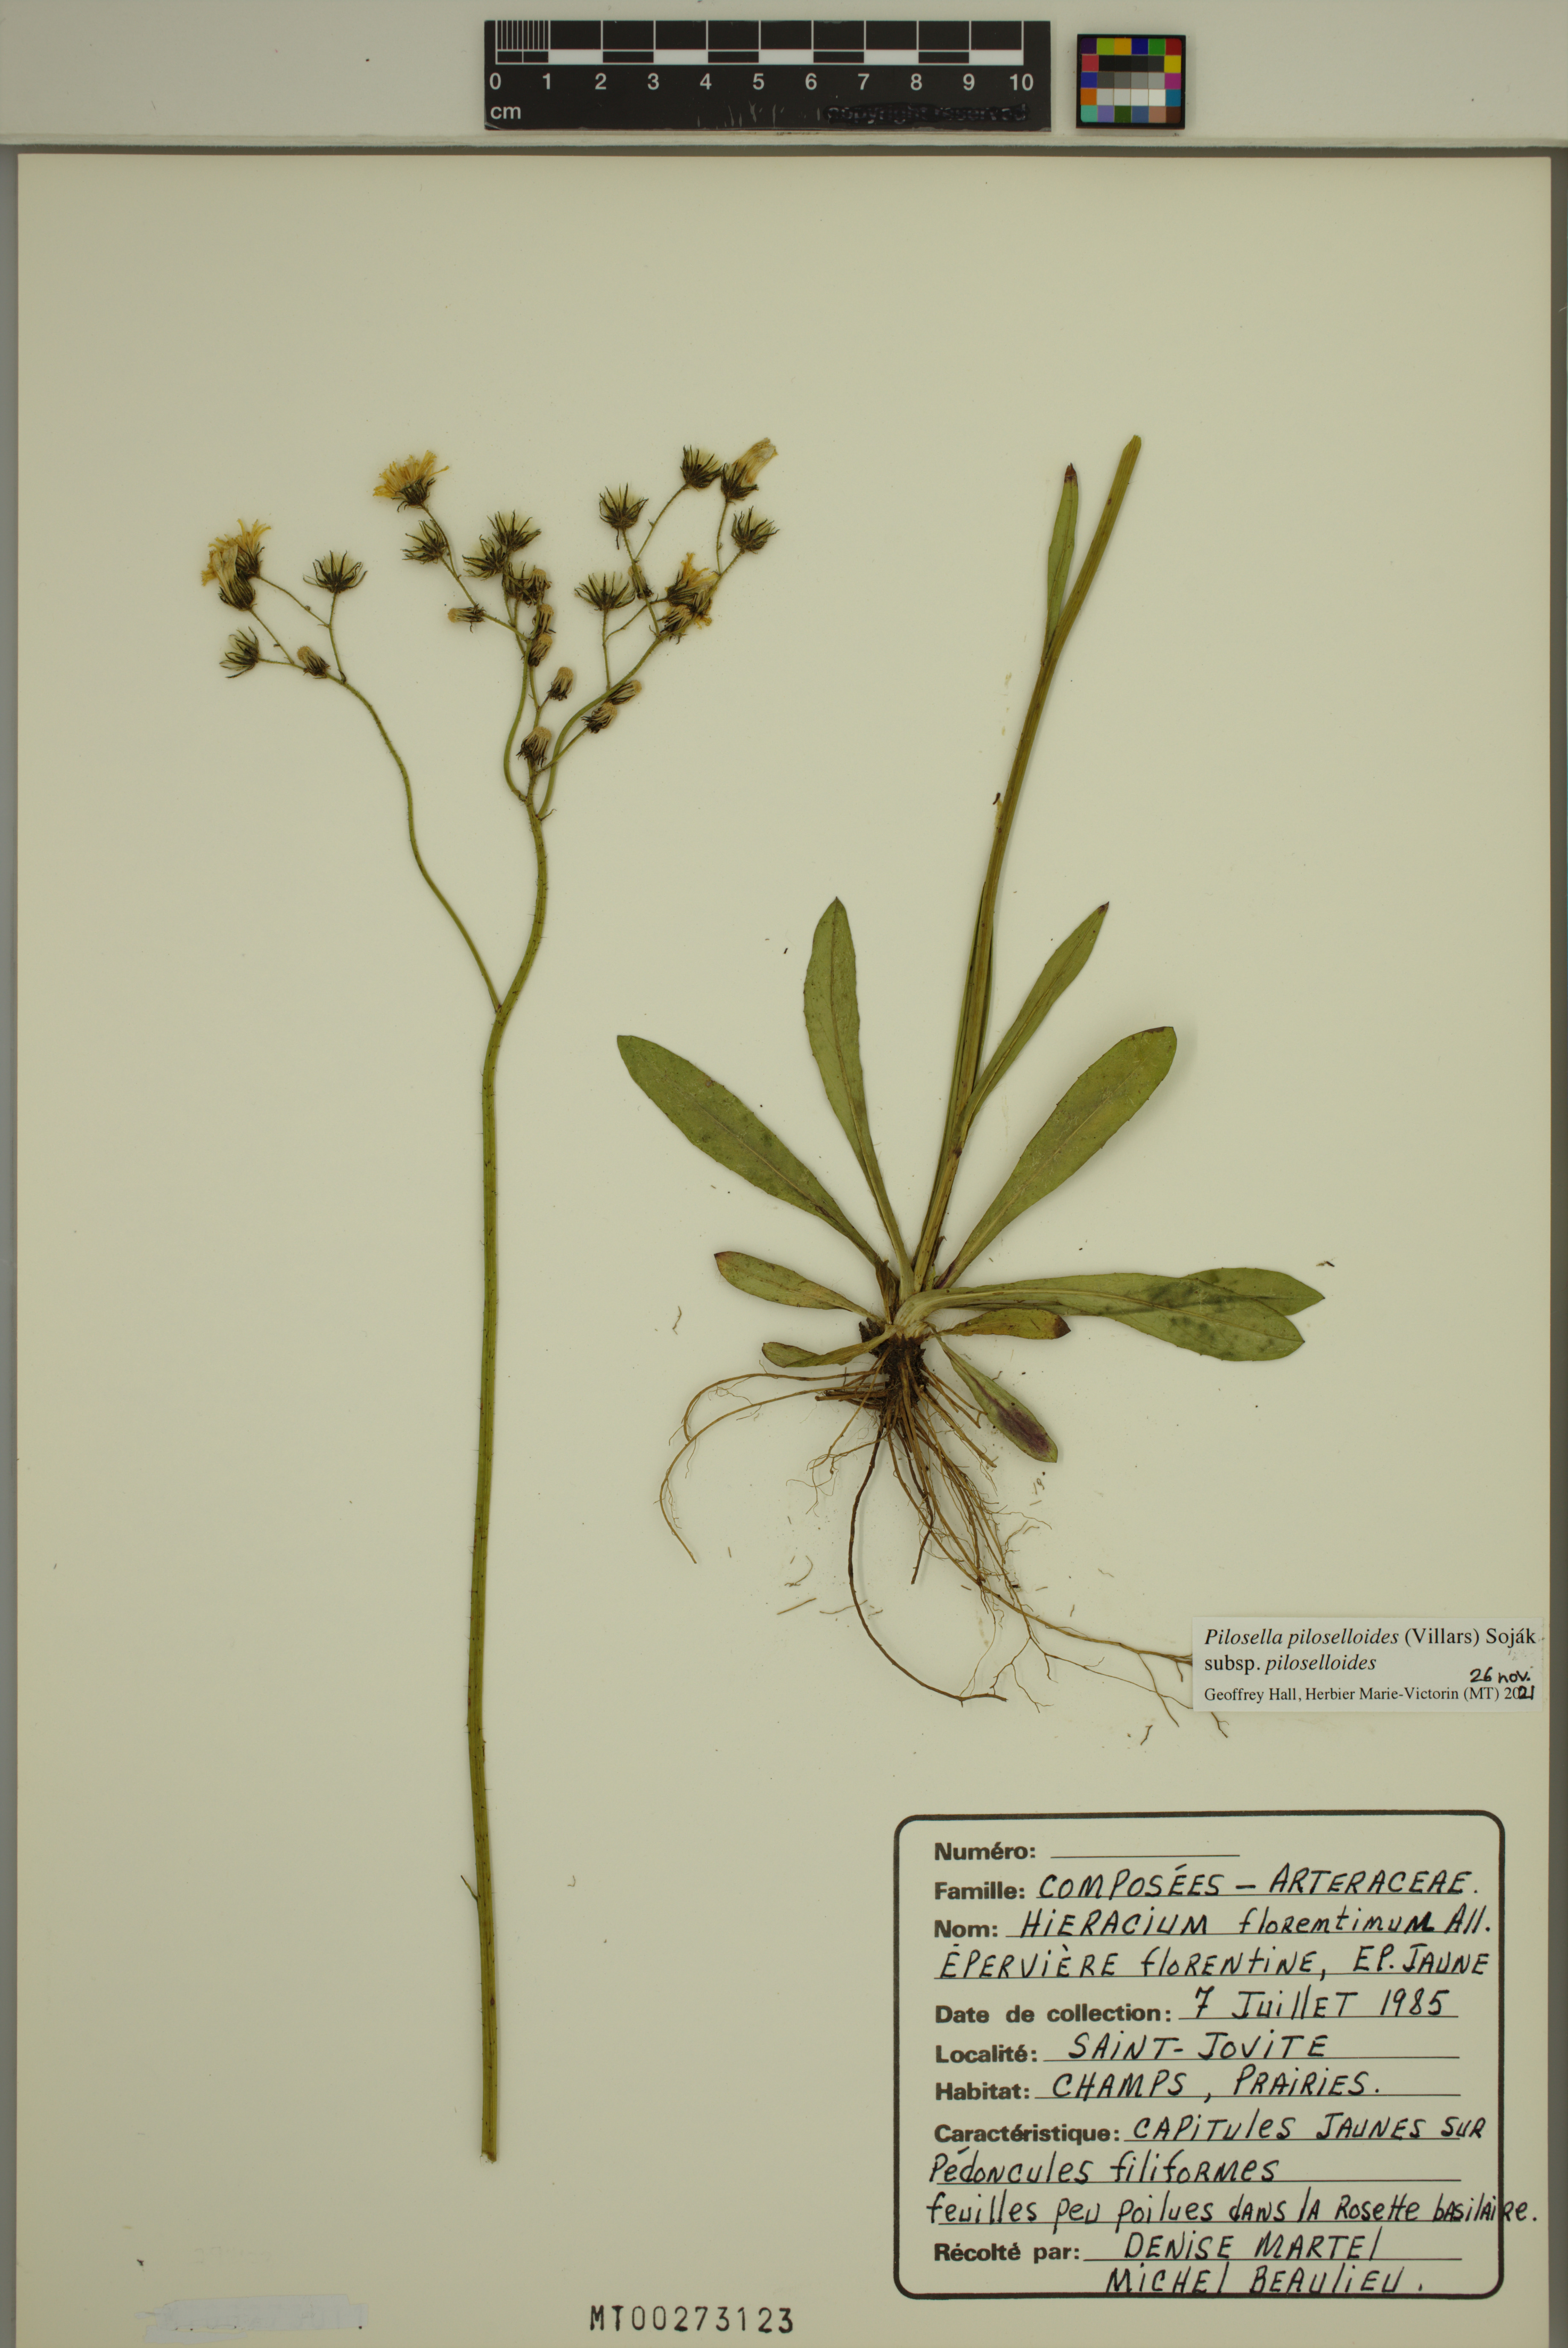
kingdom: Plantae
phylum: Tracheophyta
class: Magnoliopsida
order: Asterales
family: Asteraceae
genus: Pilosella
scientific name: Pilosella piloselloides
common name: Glaucous king-devil
